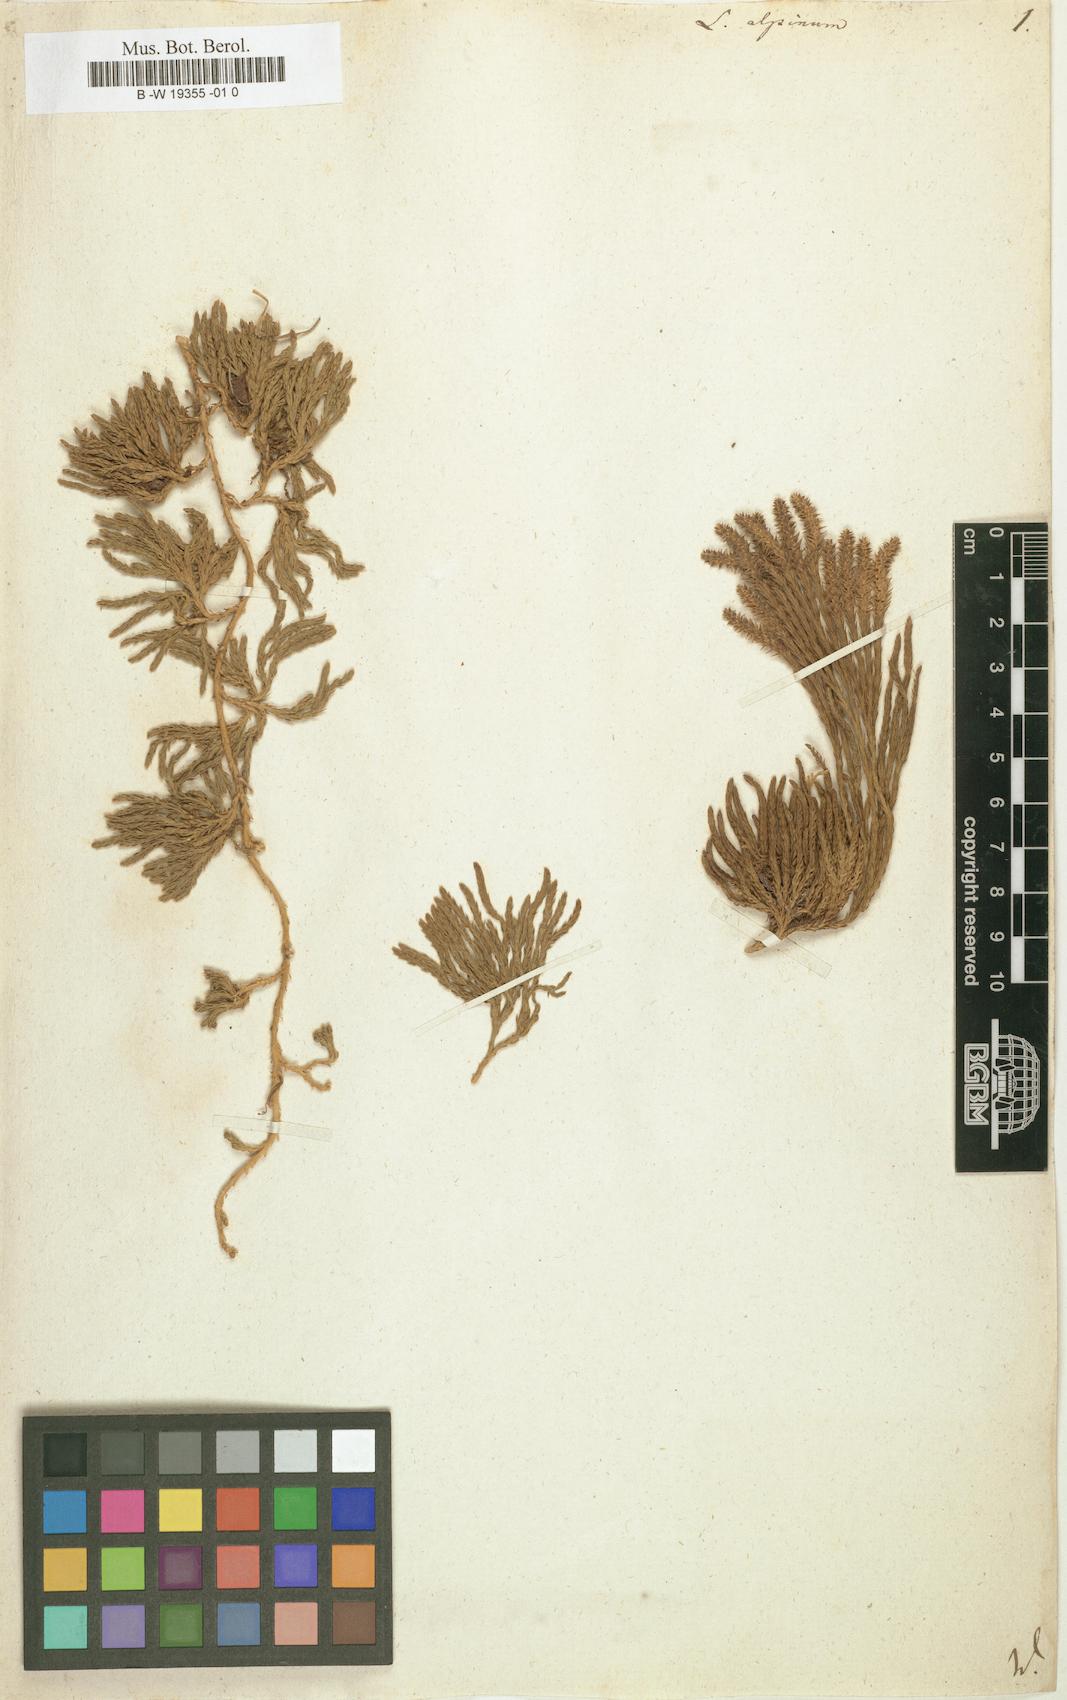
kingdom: Plantae
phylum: Tracheophyta
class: Lycopodiopsida
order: Lycopodiales
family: Lycopodiaceae
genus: Diphasiastrum
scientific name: Diphasiastrum alpinum
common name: Alpine clubmoss
